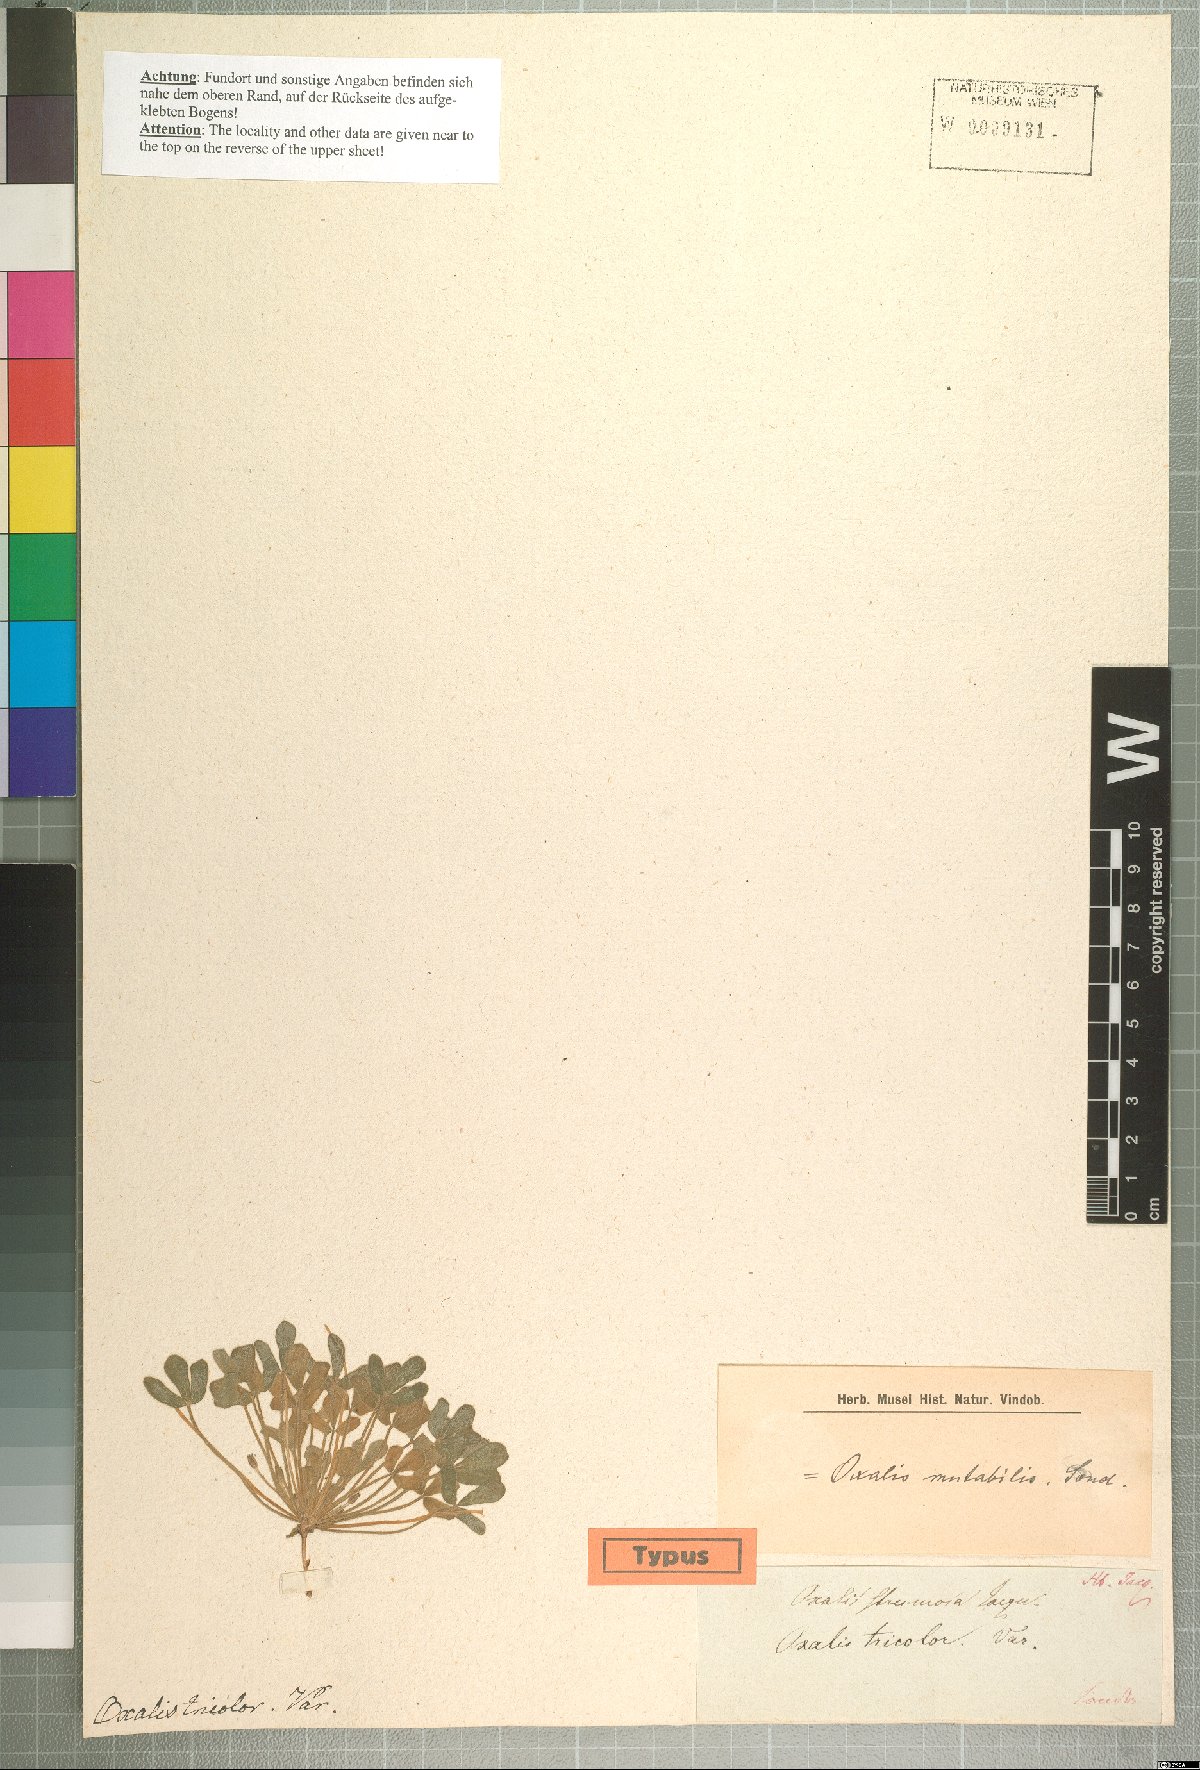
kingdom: Plantae
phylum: Tracheophyta
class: Magnoliopsida
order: Oxalidales
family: Oxalidaceae
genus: Oxalis
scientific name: Oxalis ambigua
